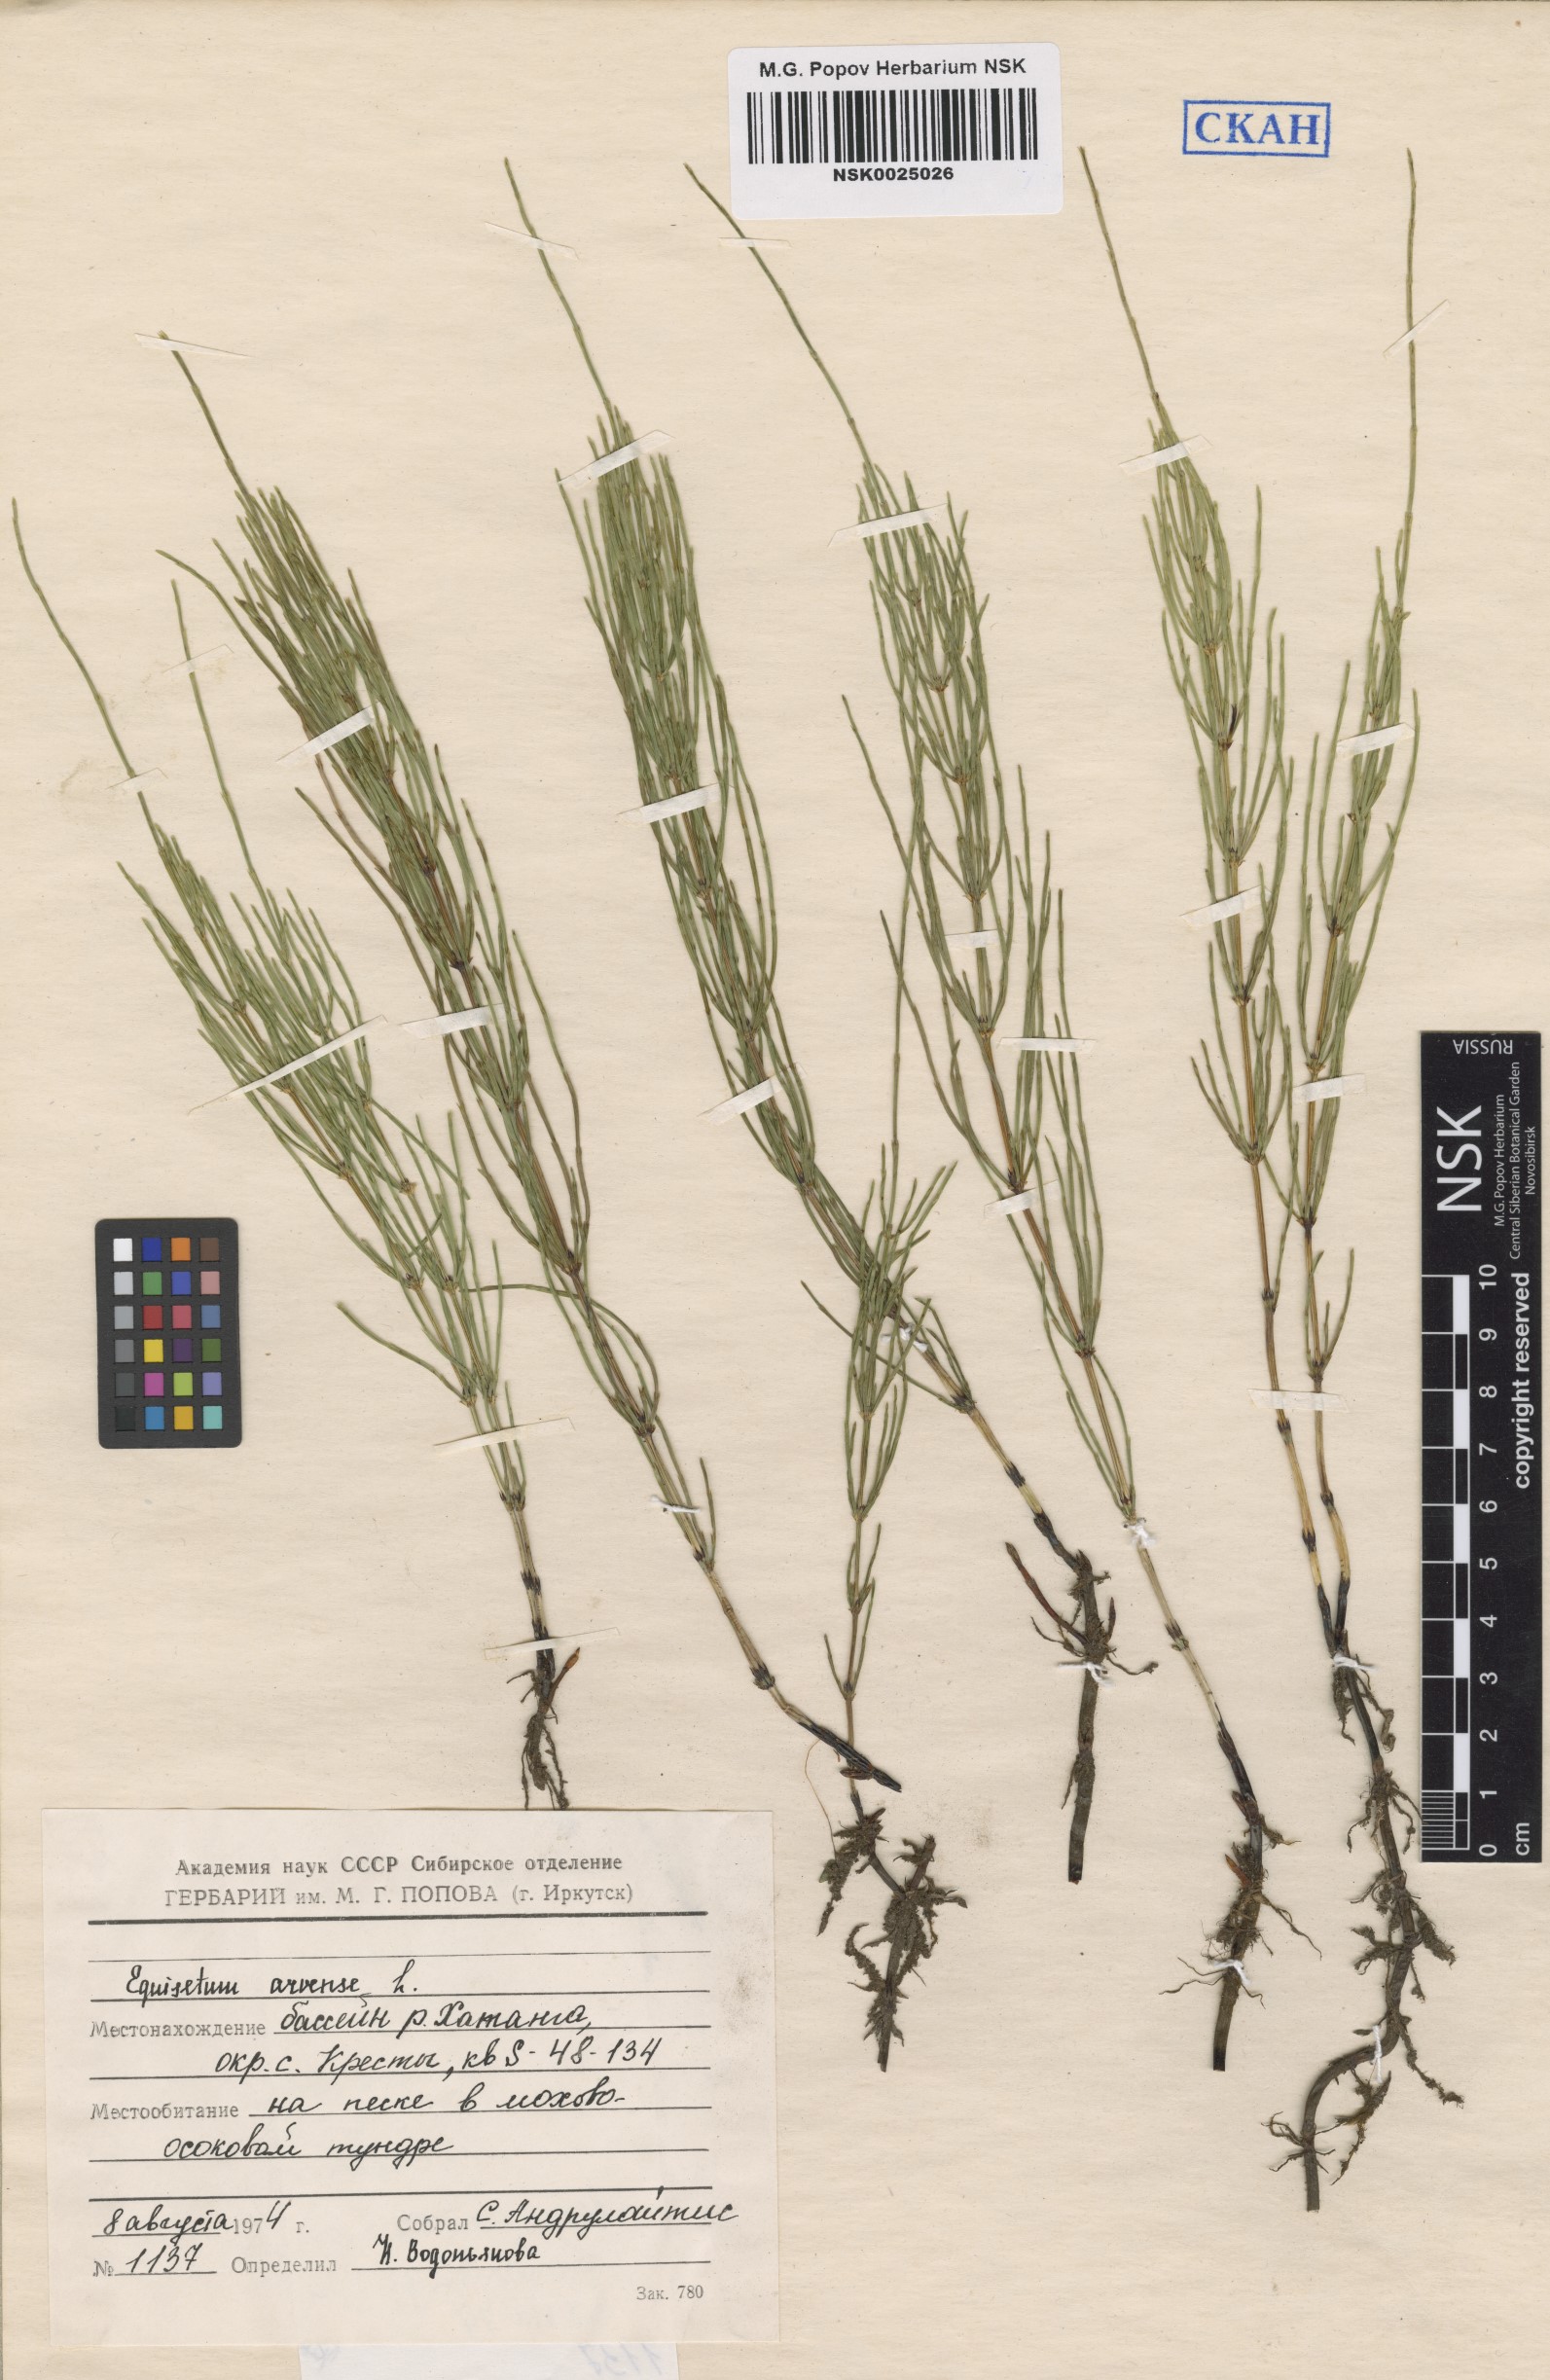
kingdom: Plantae
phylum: Tracheophyta
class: Polypodiopsida
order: Equisetales
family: Equisetaceae
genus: Equisetum
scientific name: Equisetum arvense
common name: Field horsetail
